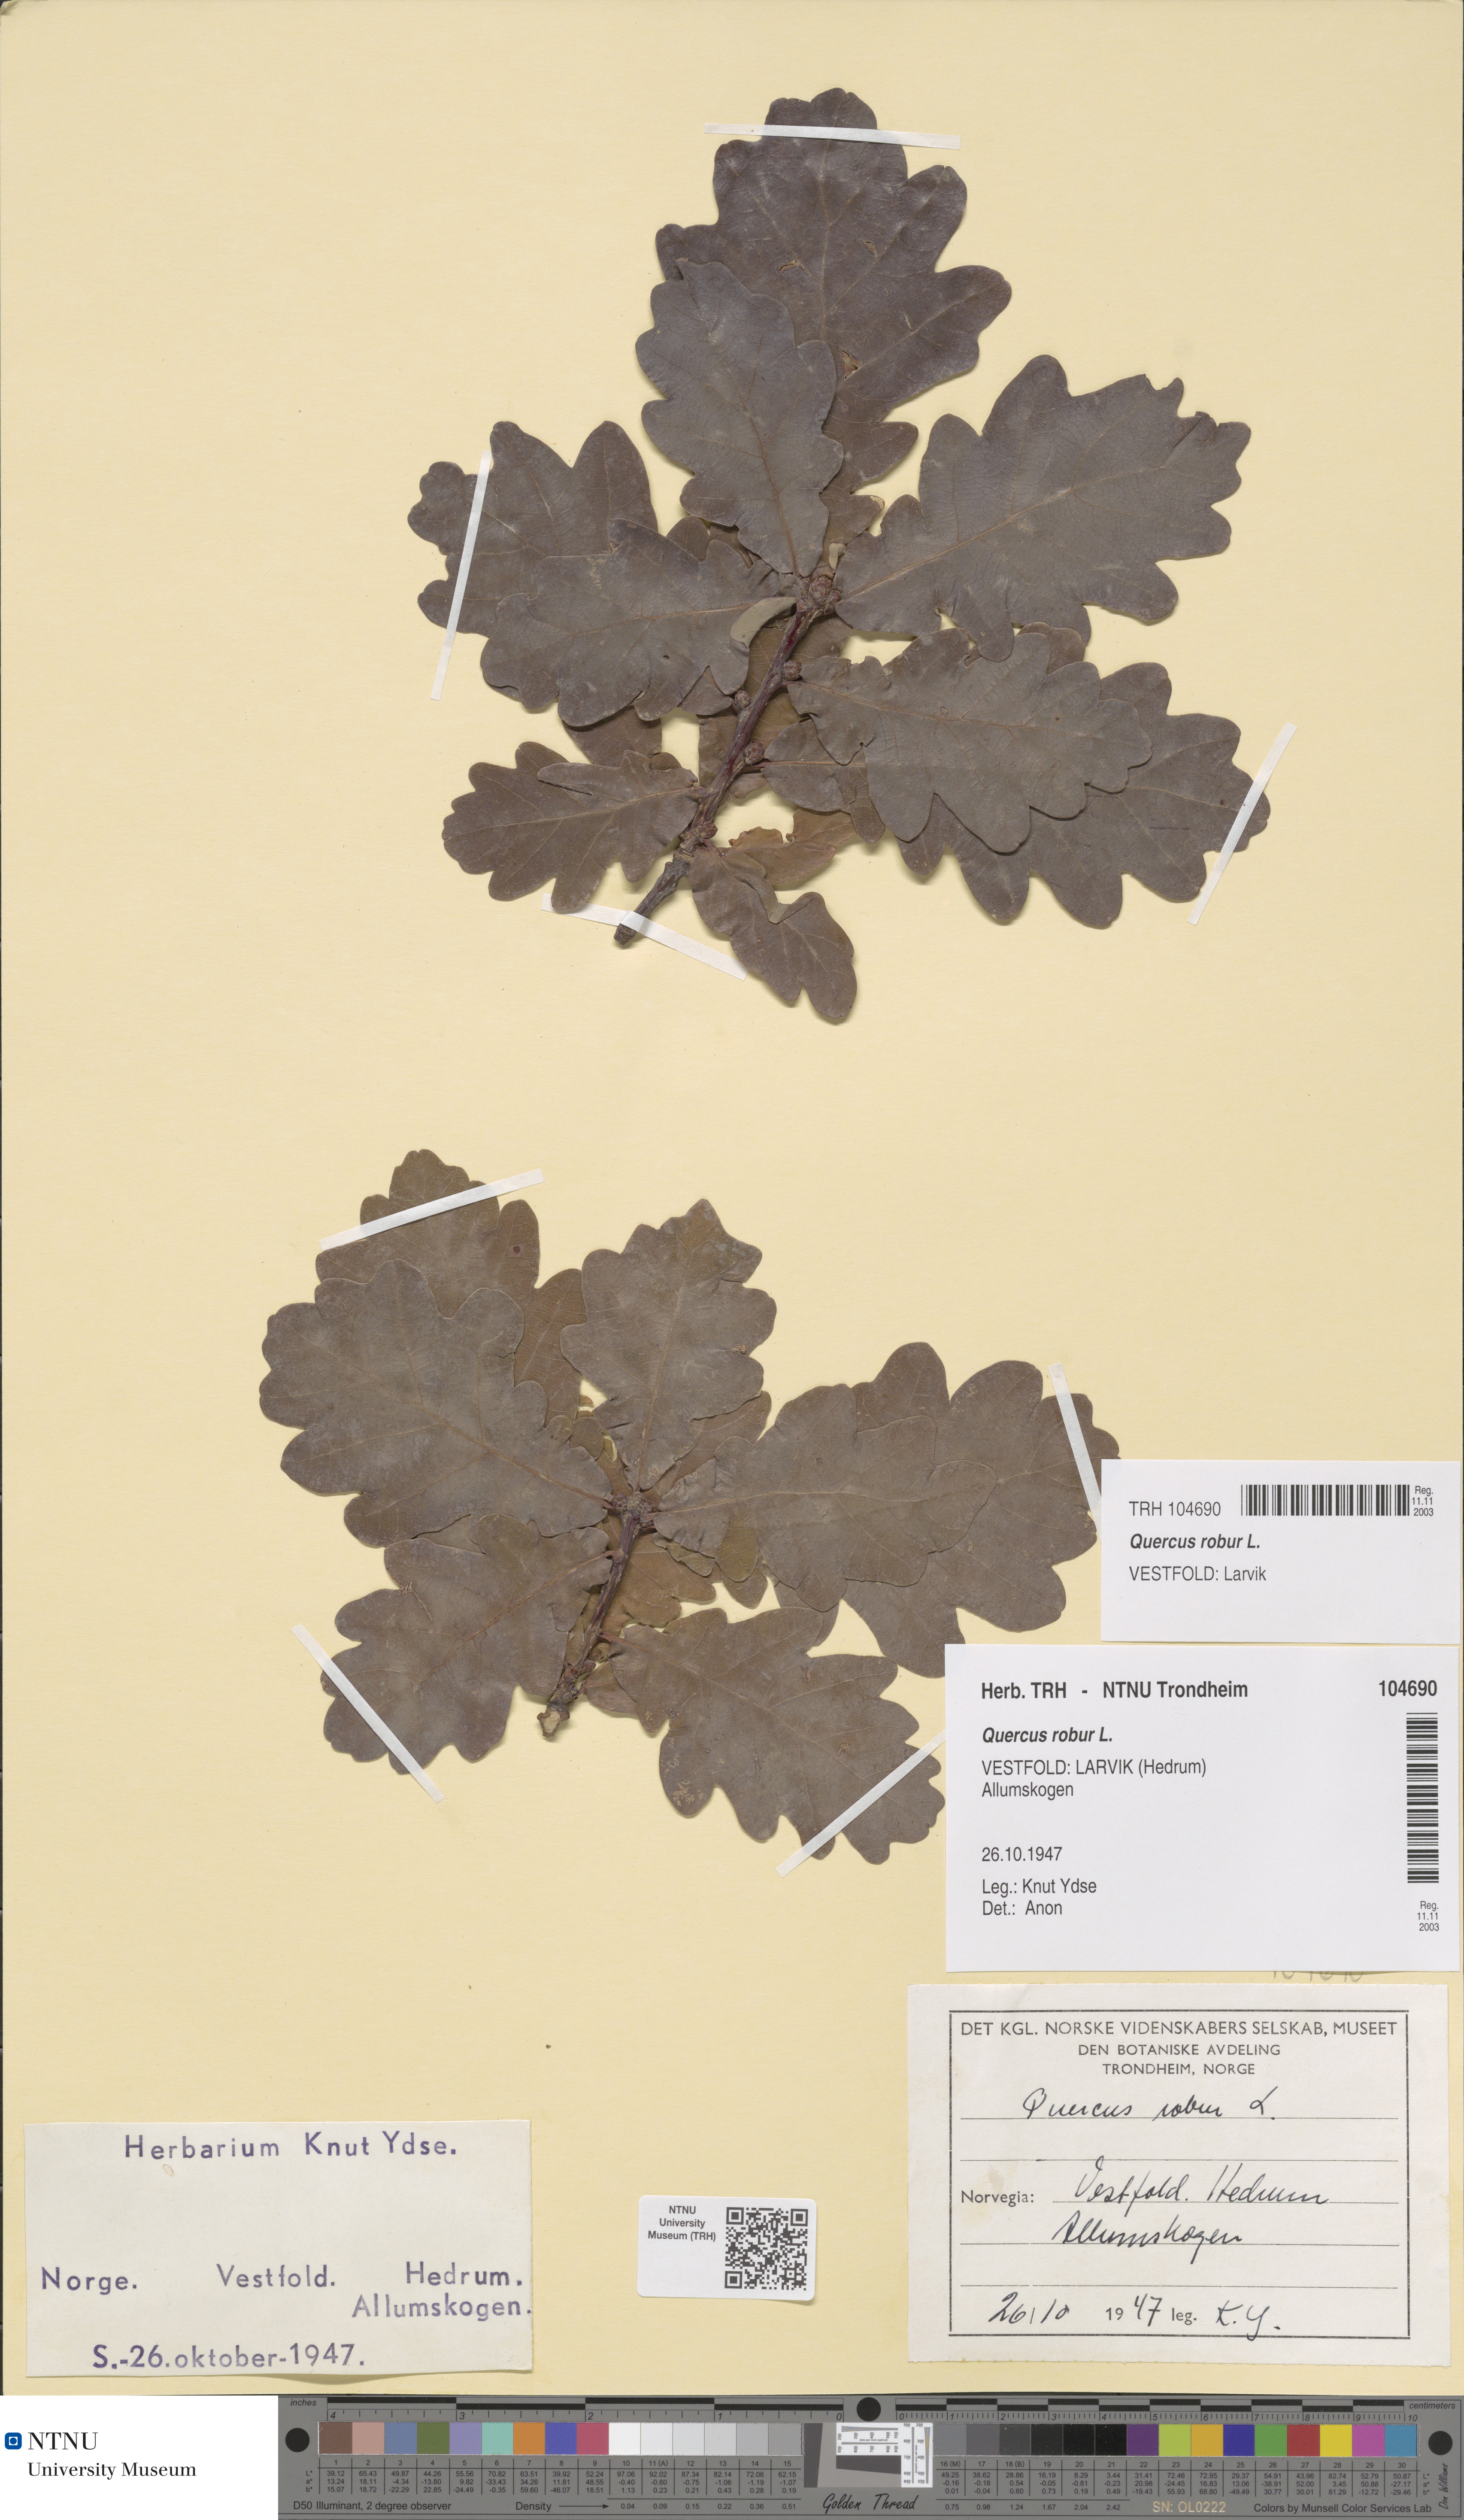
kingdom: Plantae
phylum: Tracheophyta
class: Magnoliopsida
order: Fagales
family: Fagaceae
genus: Quercus
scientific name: Quercus robur
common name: Pedunculate oak
